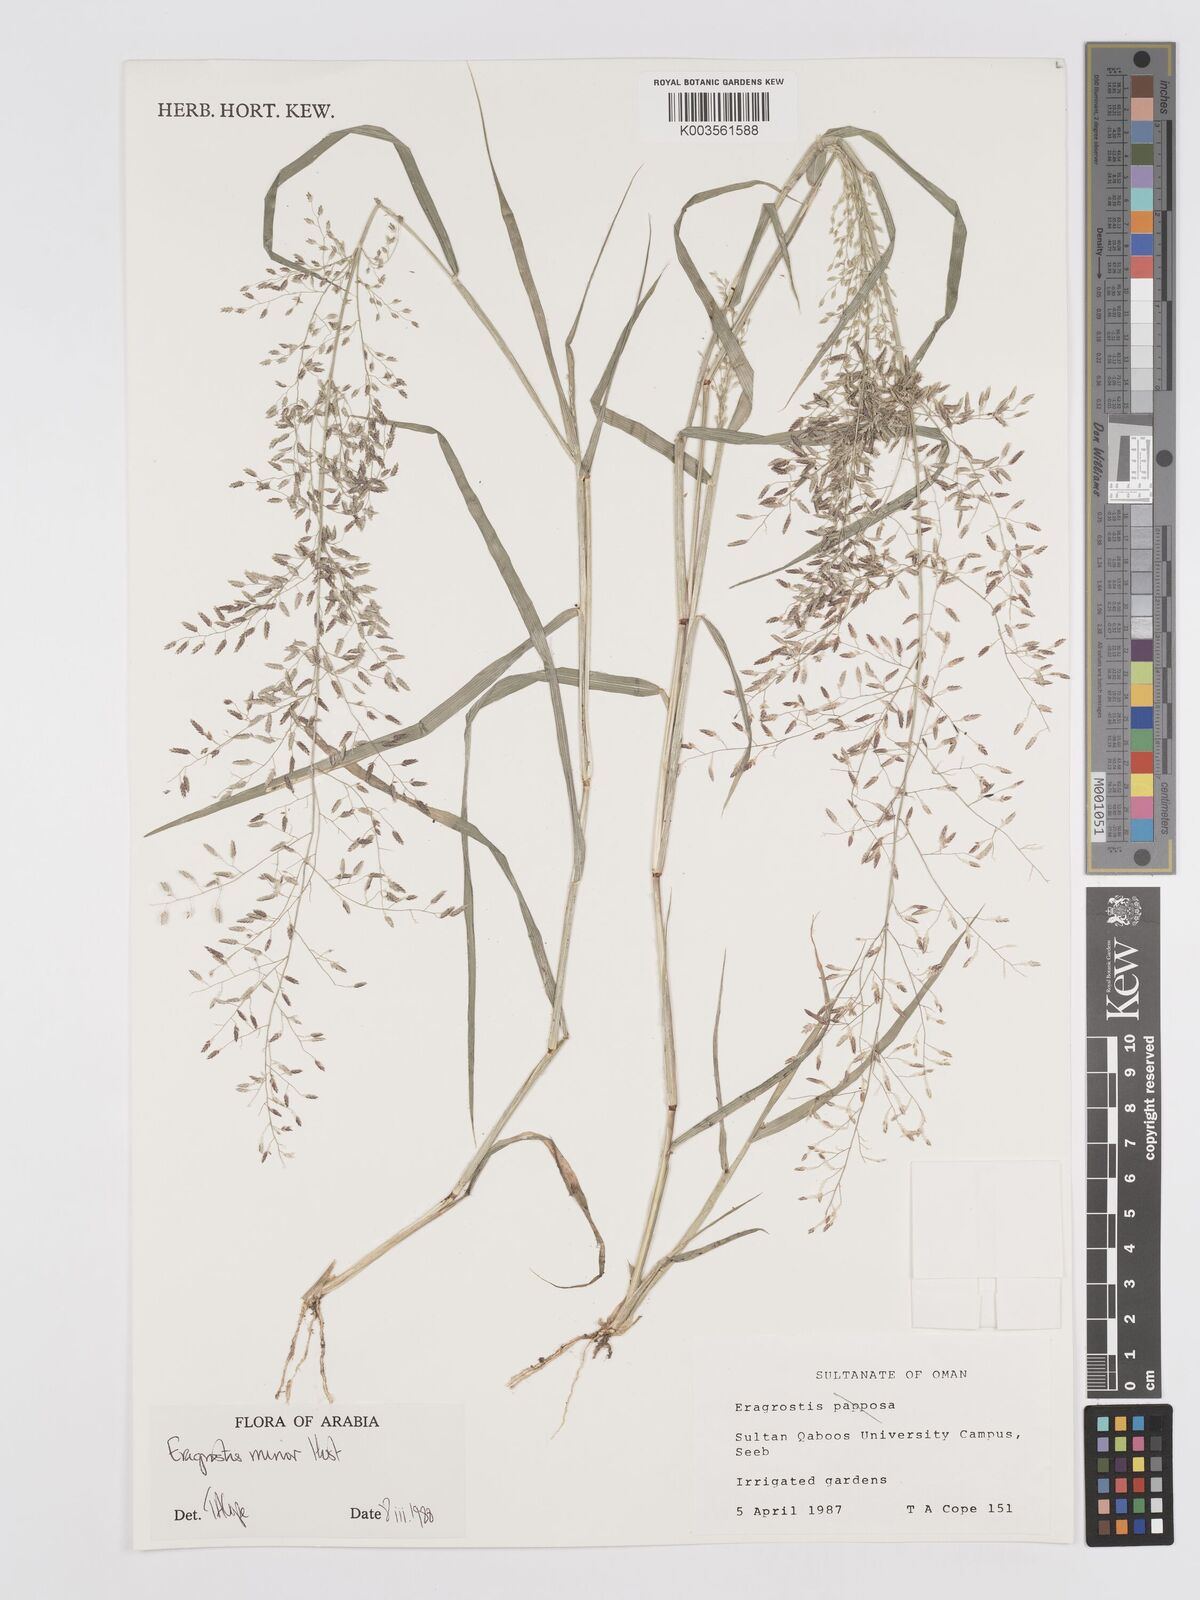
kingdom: Plantae
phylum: Tracheophyta
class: Liliopsida
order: Poales
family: Poaceae
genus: Eragrostis
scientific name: Eragrostis minor
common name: Small love-grass
